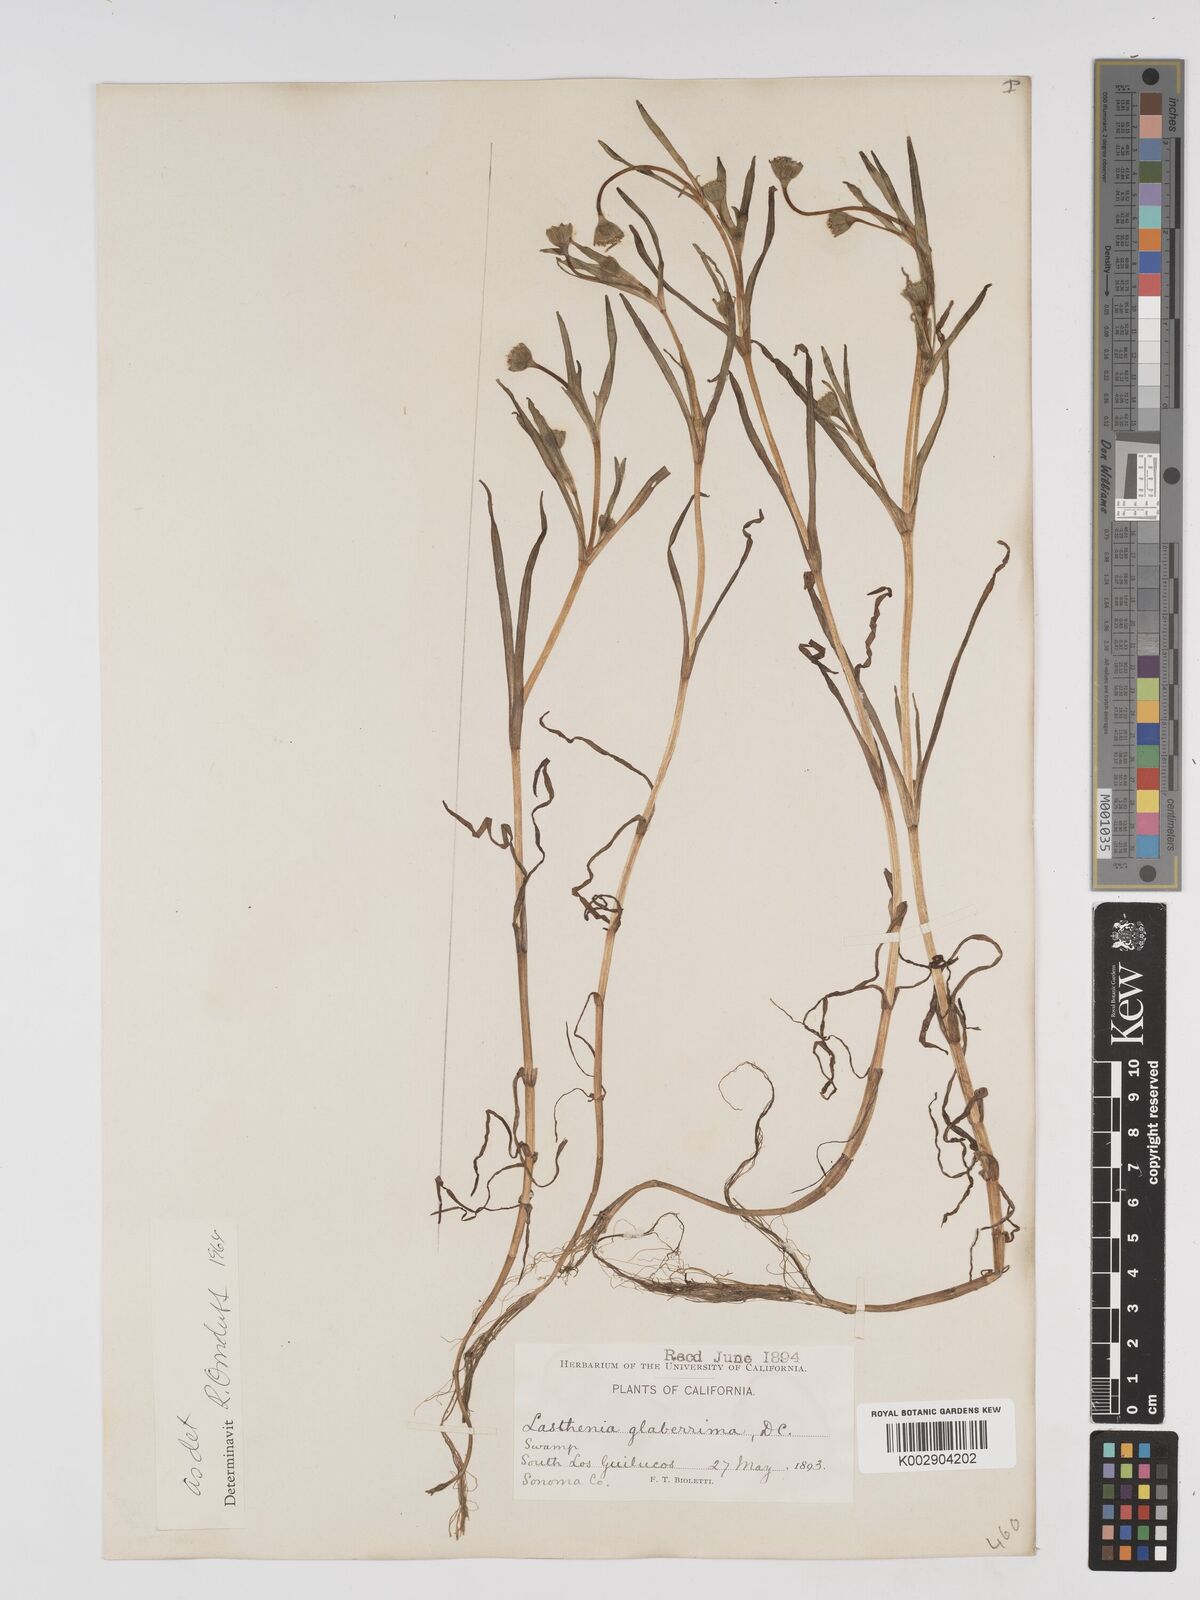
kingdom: Plantae
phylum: Tracheophyta
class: Magnoliopsida
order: Asterales
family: Asteraceae
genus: Lasthenia
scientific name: Lasthenia glaberrima
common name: Smooth goldfields
